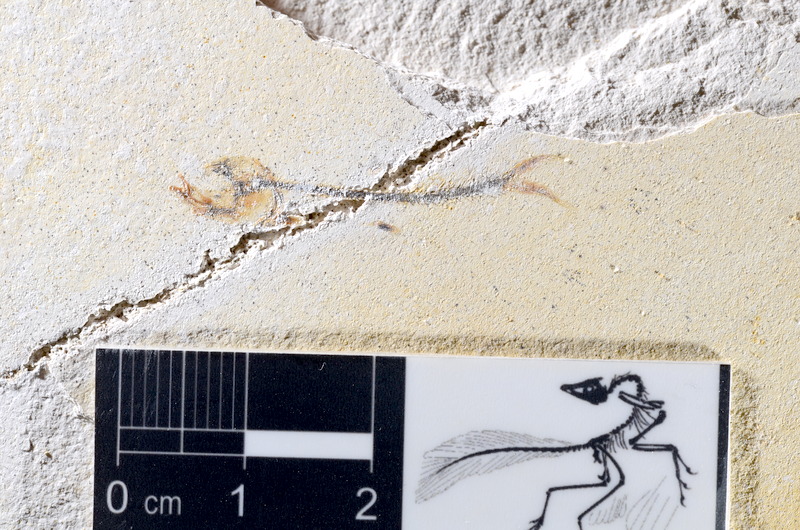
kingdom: Animalia
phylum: Chordata
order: Salmoniformes
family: Orthogonikleithridae
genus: Orthogonikleithrus
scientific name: Orthogonikleithrus hoelli
